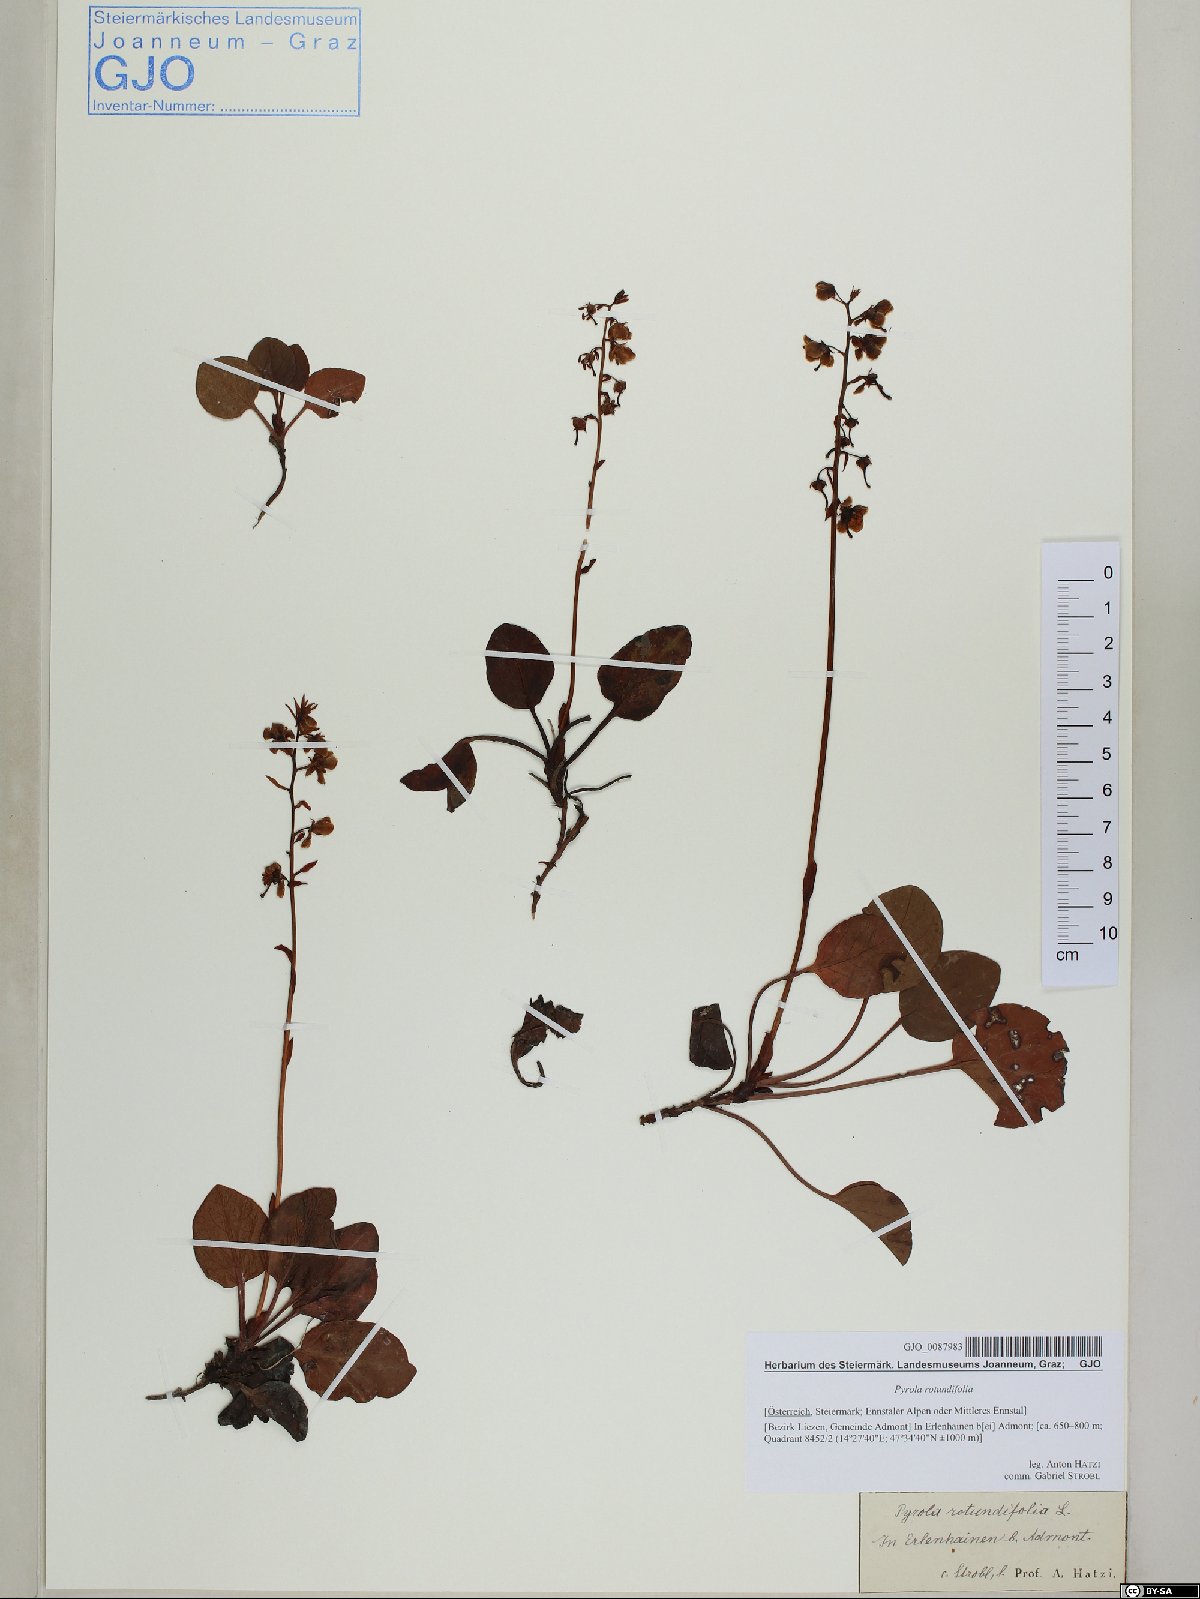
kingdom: Plantae
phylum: Tracheophyta
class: Magnoliopsida
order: Ericales
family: Ericaceae
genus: Pyrola
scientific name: Pyrola rotundifolia
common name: Round-leaved wintergreen
